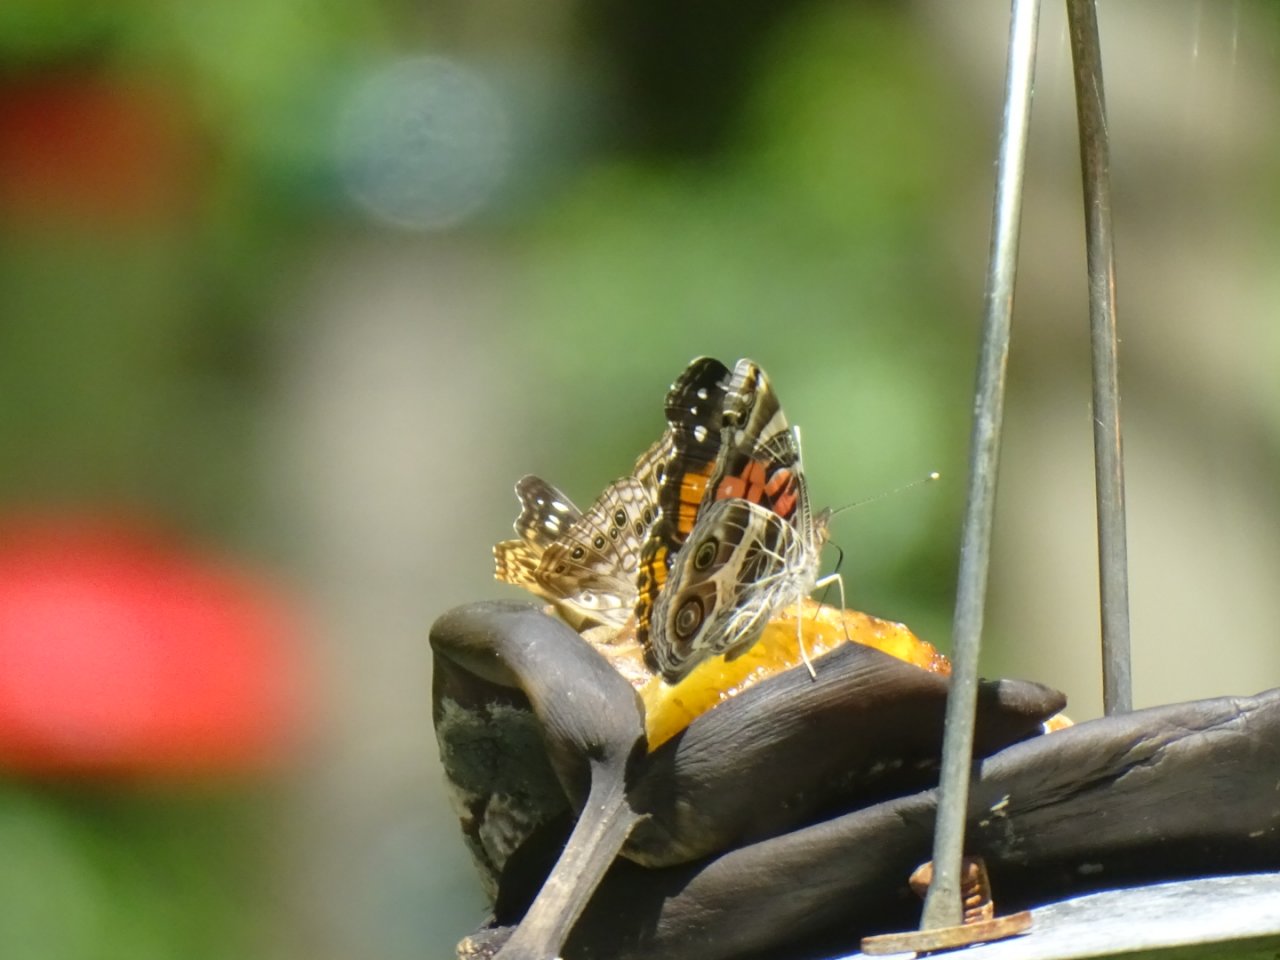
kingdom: Animalia
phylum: Arthropoda
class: Insecta
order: Lepidoptera
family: Nymphalidae
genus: Vanessa
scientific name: Vanessa virginiensis
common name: American Lady
